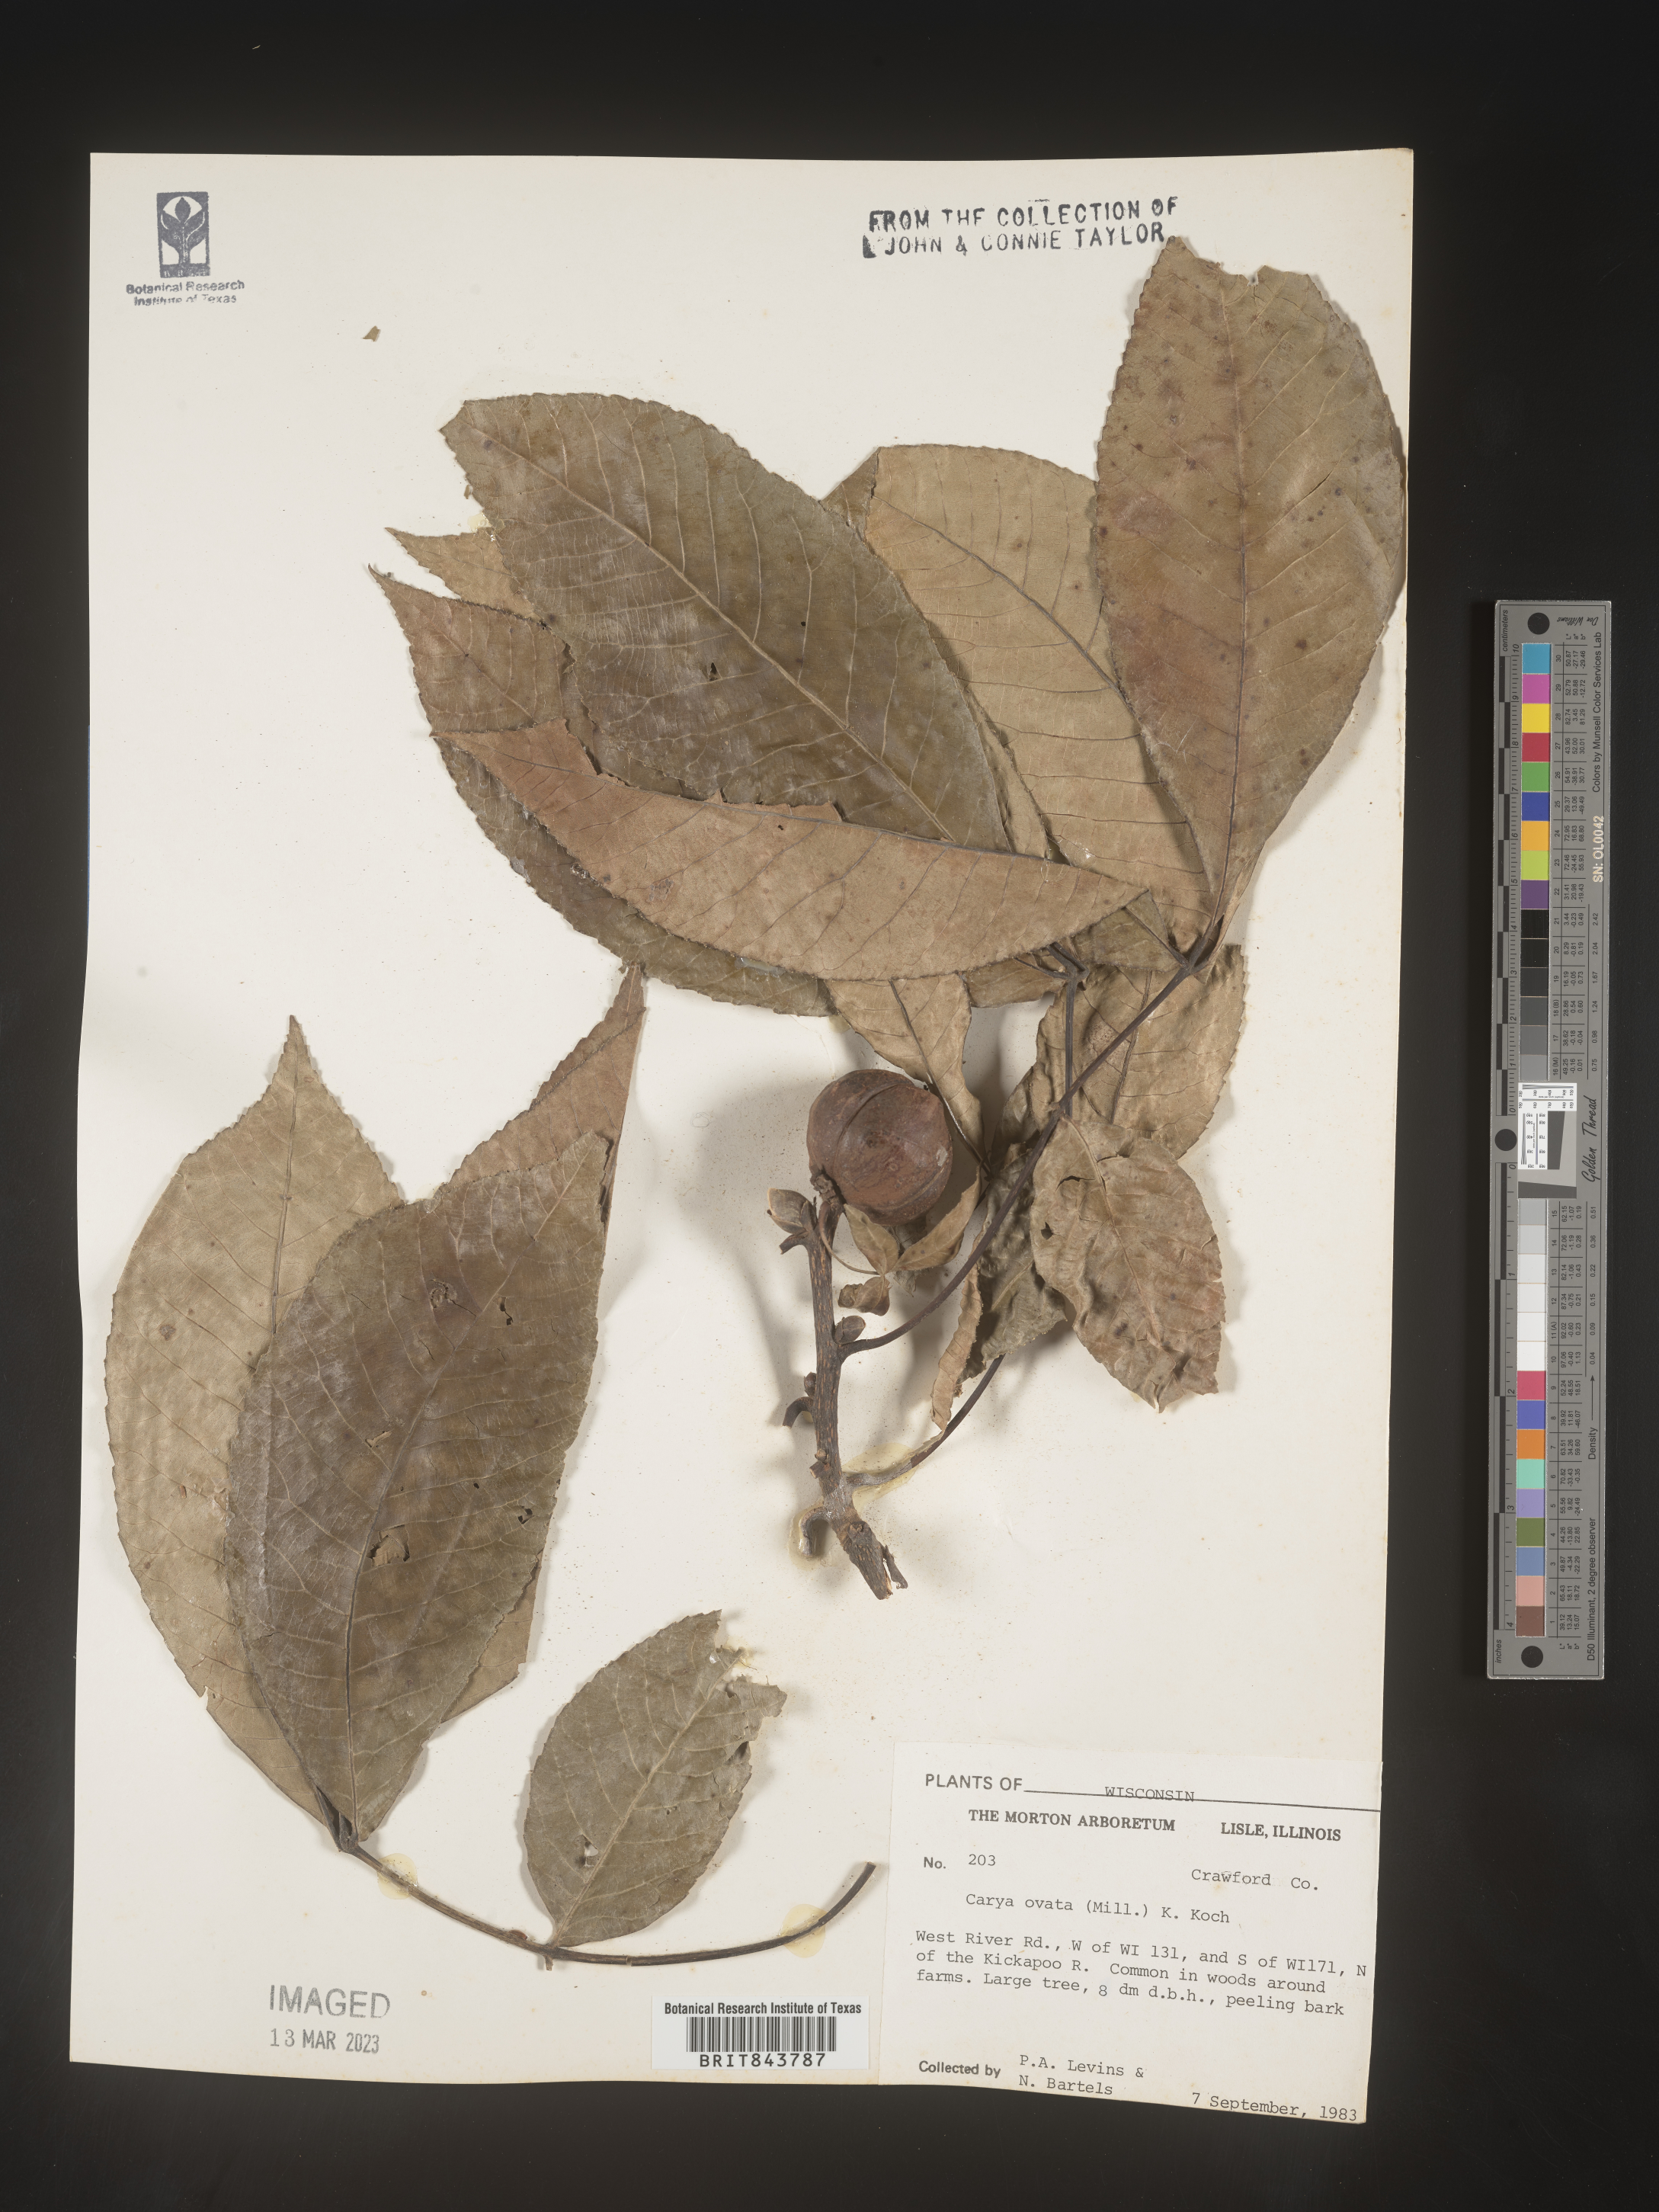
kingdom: Plantae
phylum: Tracheophyta
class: Magnoliopsida
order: Fagales
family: Juglandaceae
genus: Carya
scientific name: Carya ovata
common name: Shagbark hickory
